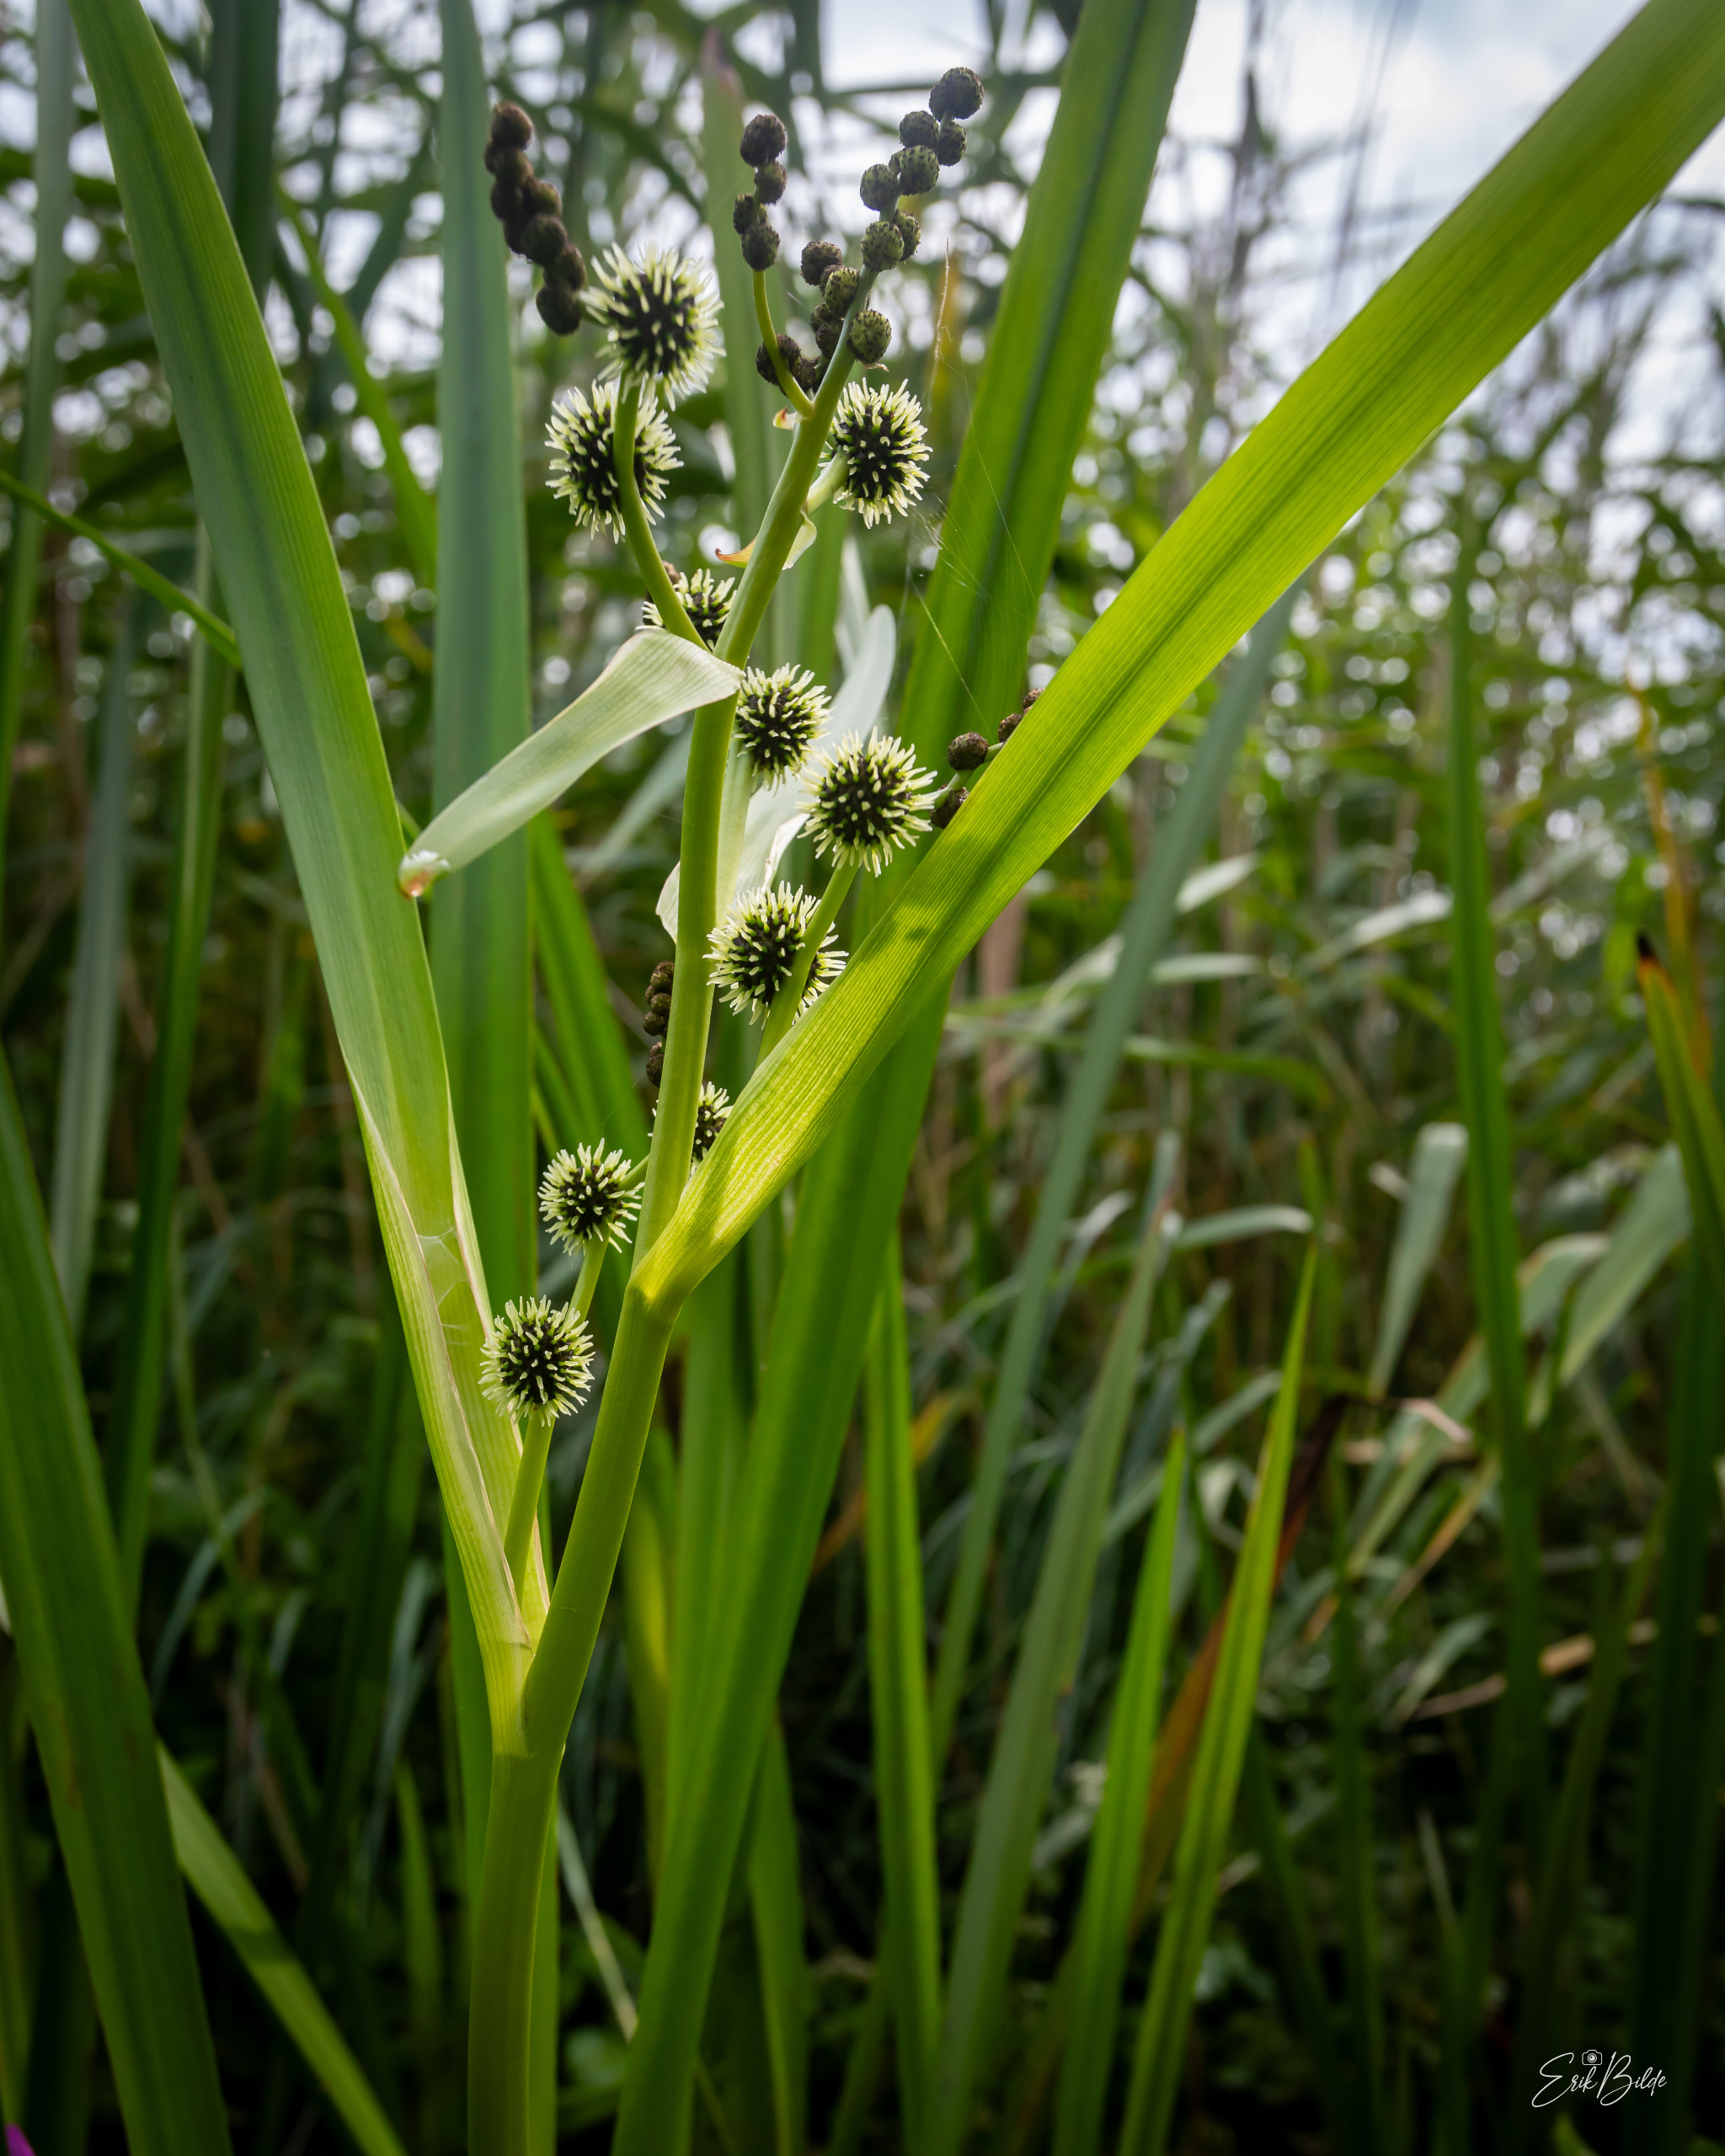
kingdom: Plantae
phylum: Tracheophyta
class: Liliopsida
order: Poales
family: Typhaceae
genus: Sparganium
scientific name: Sparganium erectum
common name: Grenet pindsvineknop
